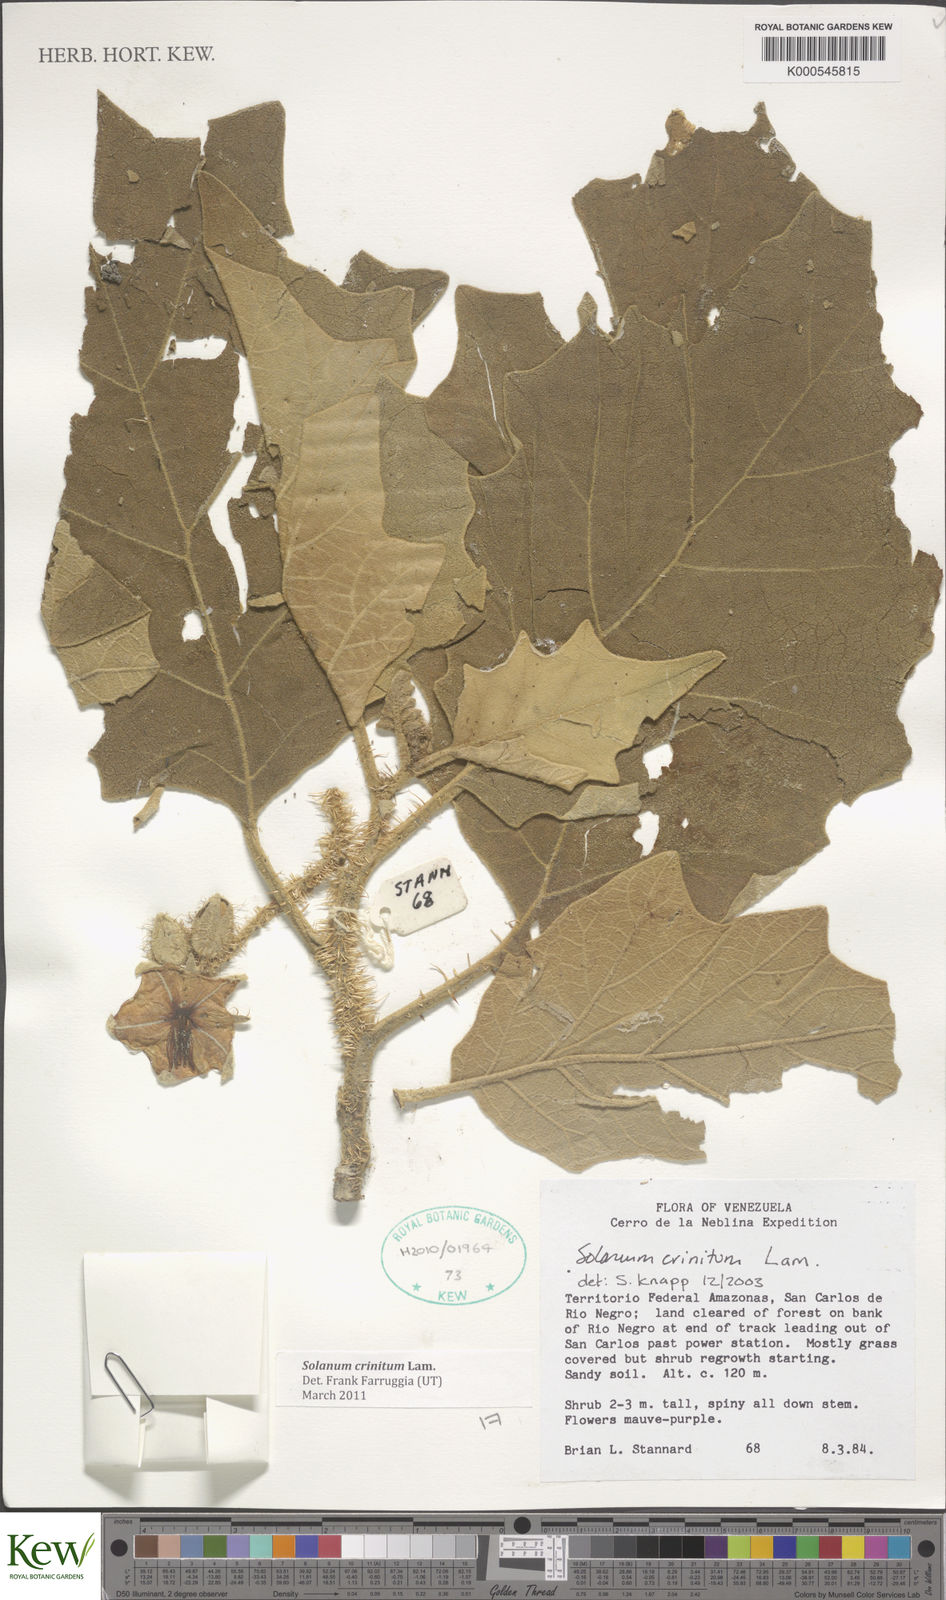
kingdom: Plantae
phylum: Tracheophyta
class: Magnoliopsida
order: Solanales
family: Solanaceae
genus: Solanum
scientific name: Solanum crinitum
